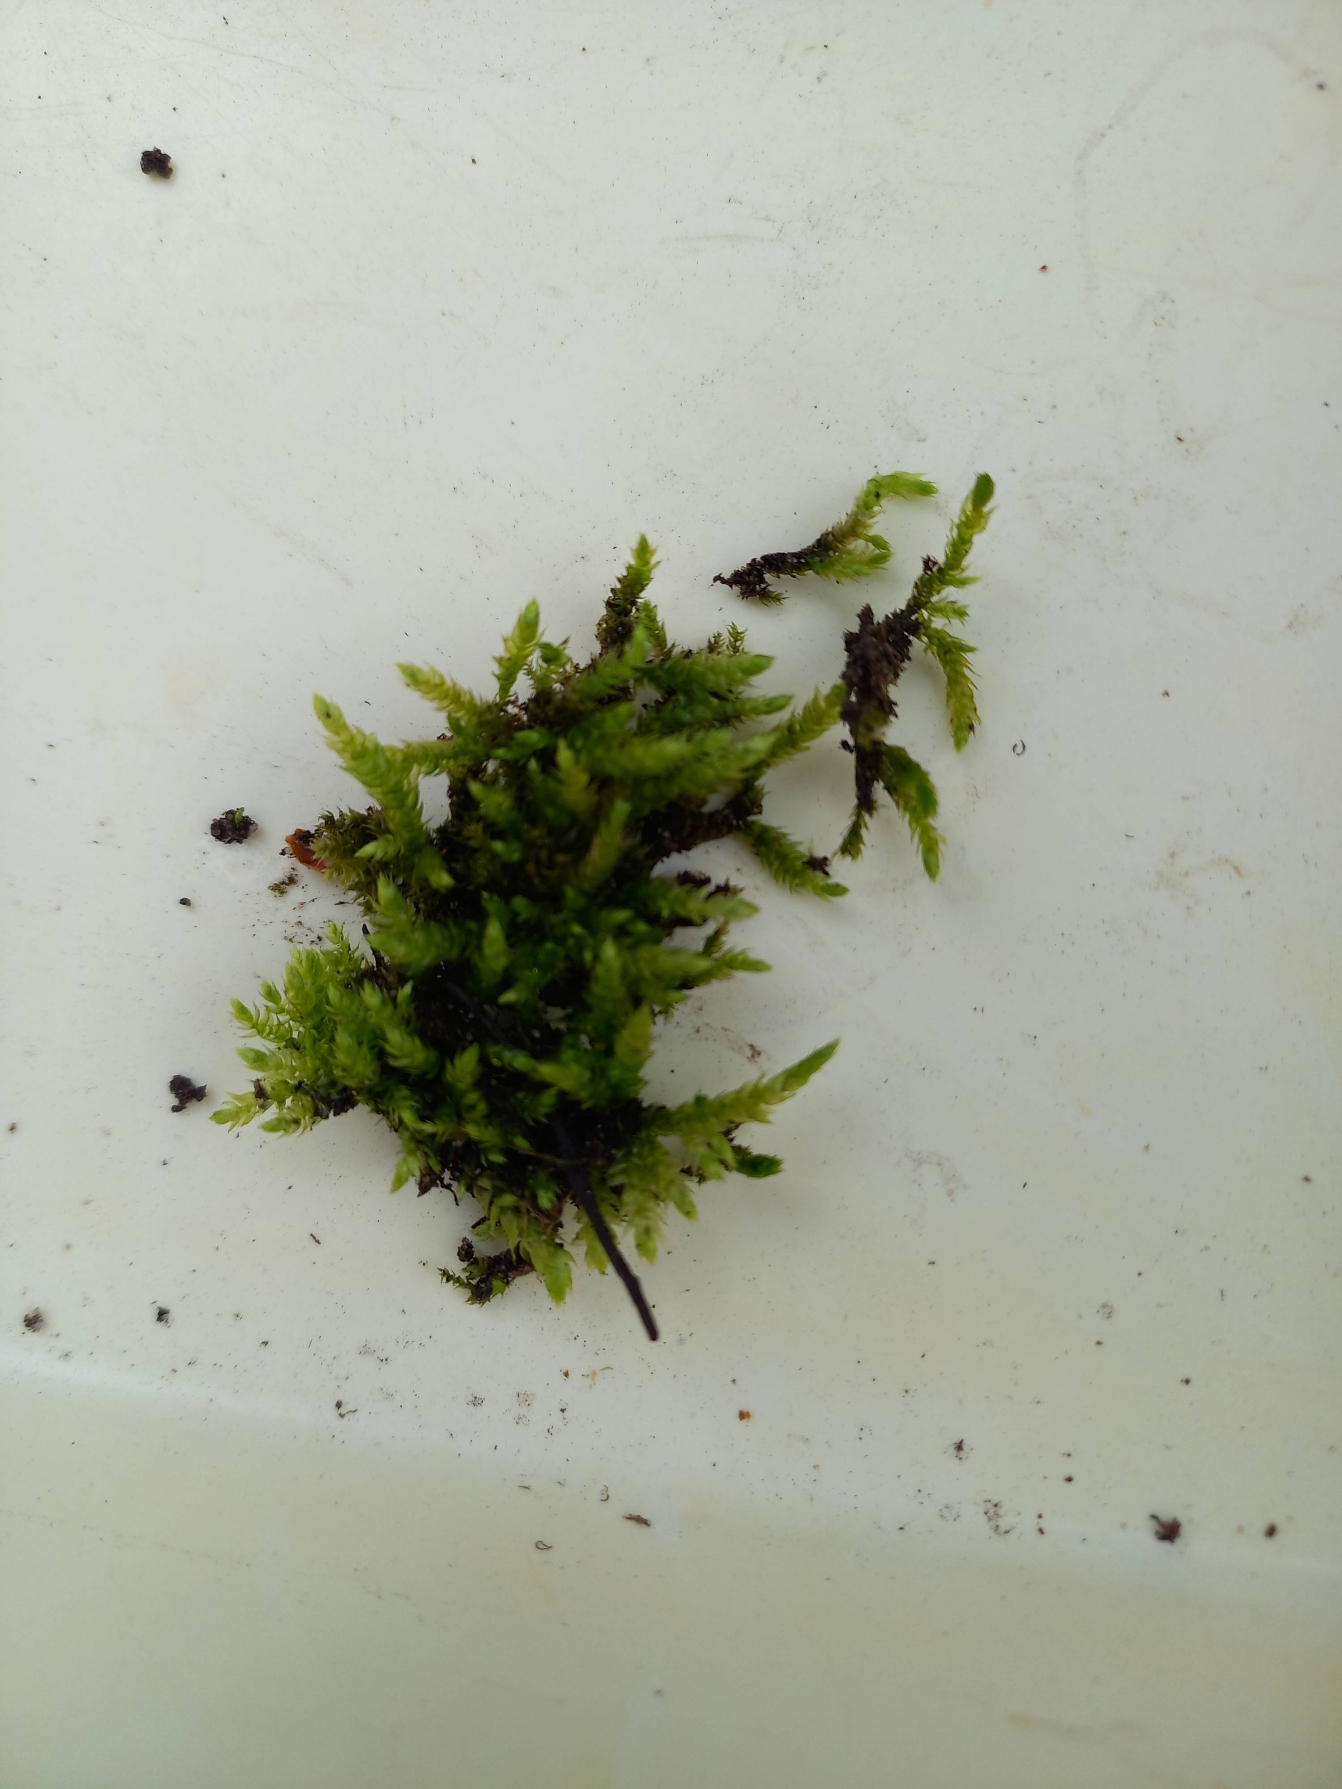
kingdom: Plantae
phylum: Bryophyta
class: Bryopsida
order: Hypnales
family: Brachytheciaceae
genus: Brachythecium
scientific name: Brachythecium rutabulum
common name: Almindelig kortkapsel
